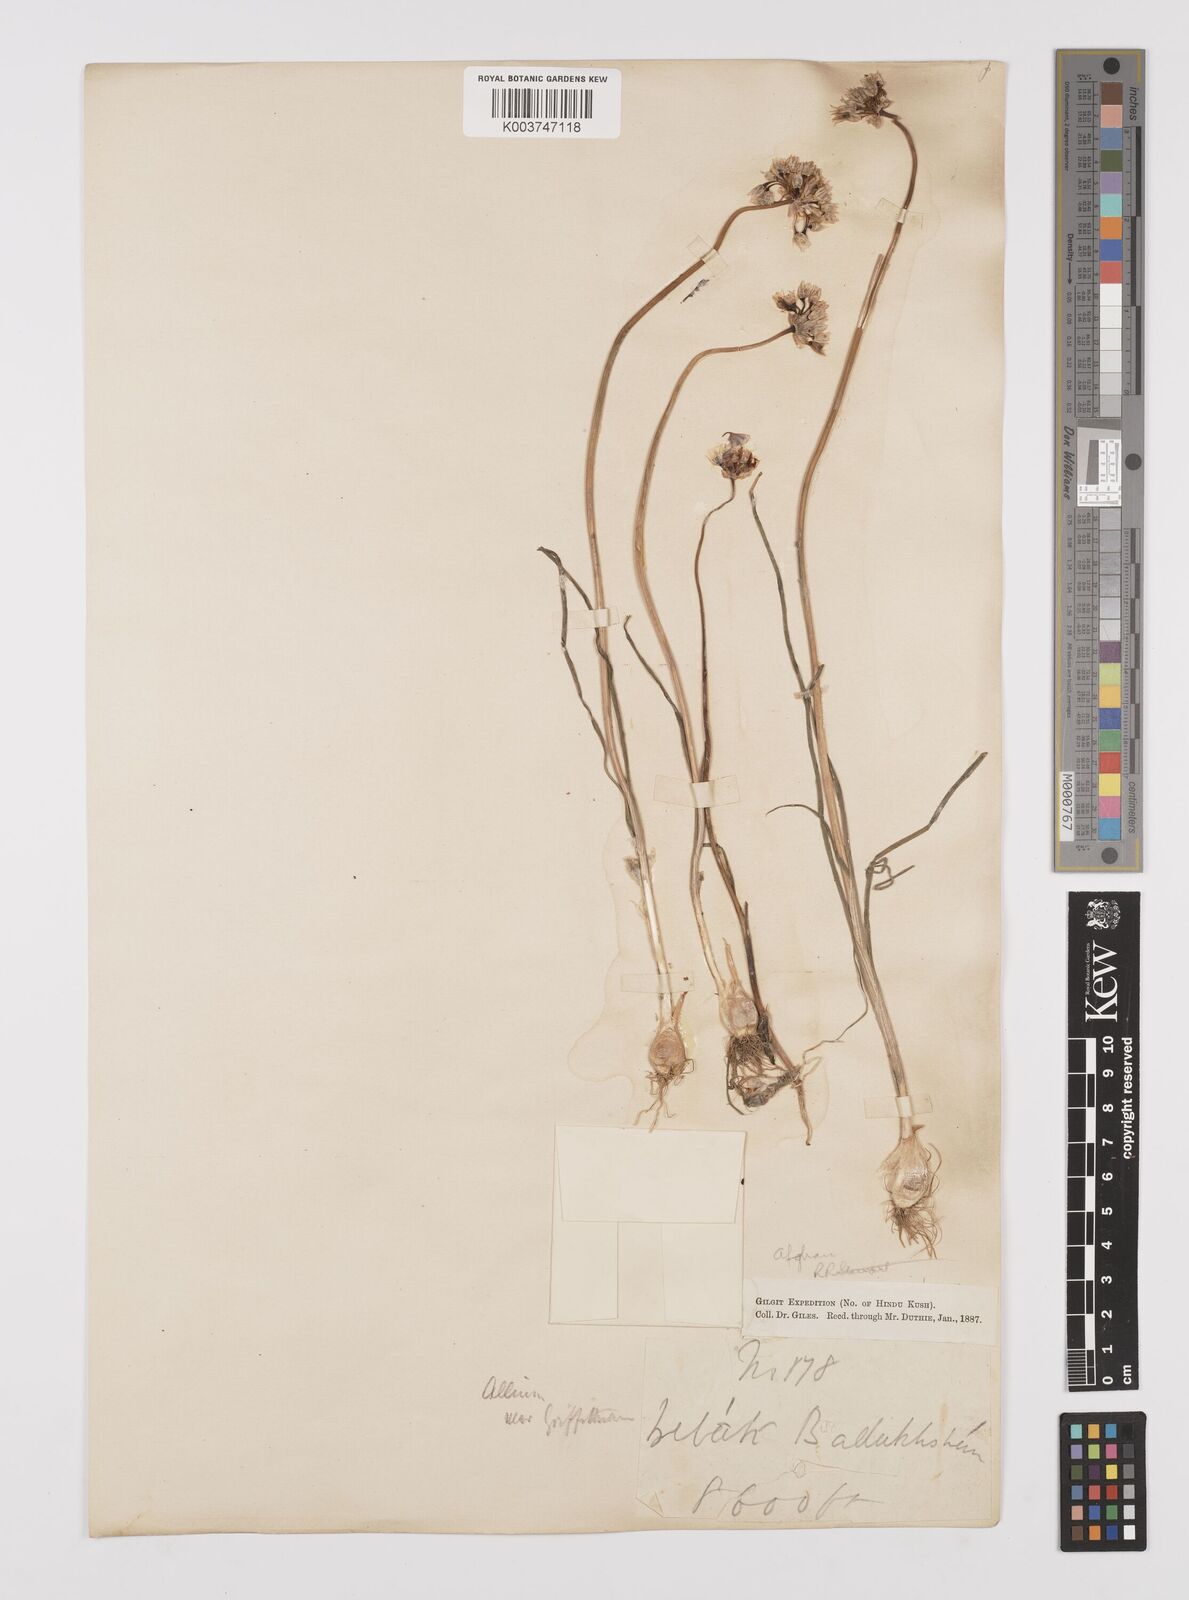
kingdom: Plantae
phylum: Tracheophyta
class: Liliopsida
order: Asparagales
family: Amaryllidaceae
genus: Allium
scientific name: Allium griffithianum
